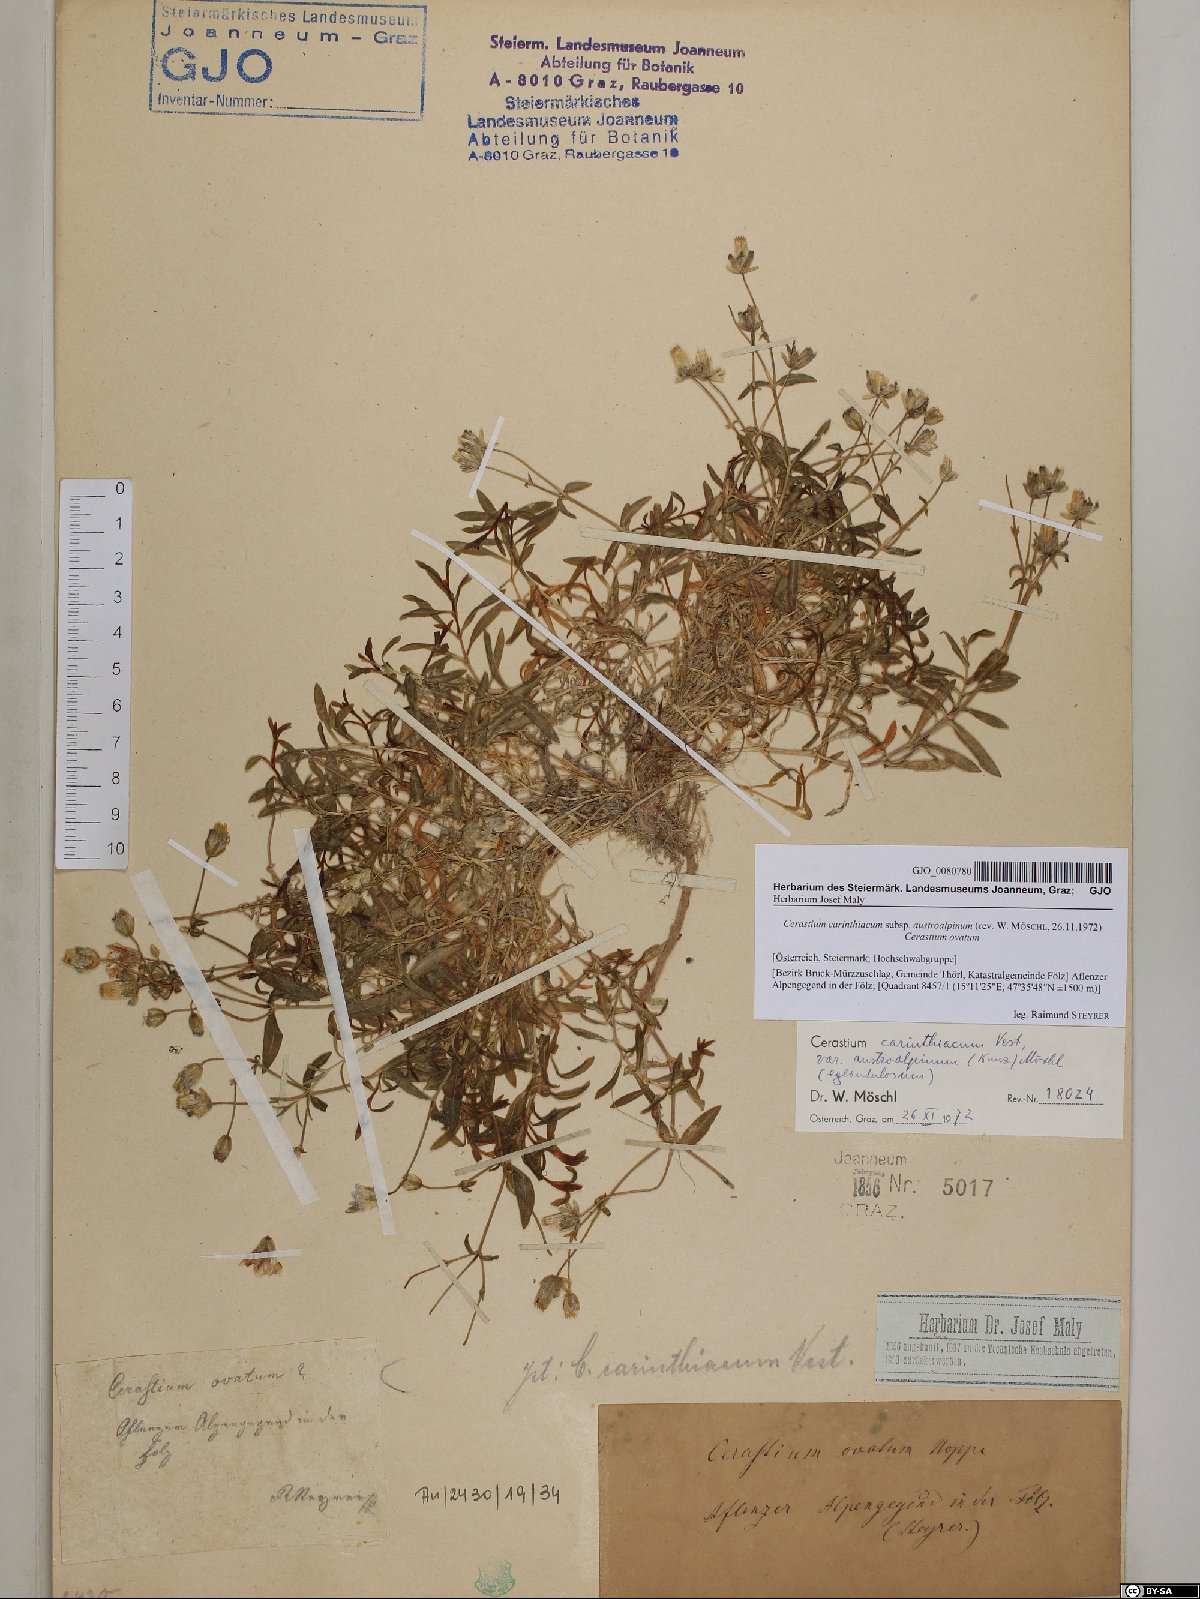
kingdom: Plantae
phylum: Tracheophyta
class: Magnoliopsida
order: Caryophyllales
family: Caryophyllaceae
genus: Cerastium
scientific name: Cerastium carinthiacum
